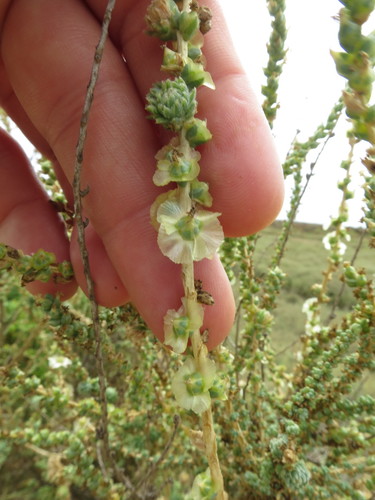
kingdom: Plantae
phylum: Tracheophyta
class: Magnoliopsida
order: Caryophyllales
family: Amaranthaceae
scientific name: Amaranthaceae
